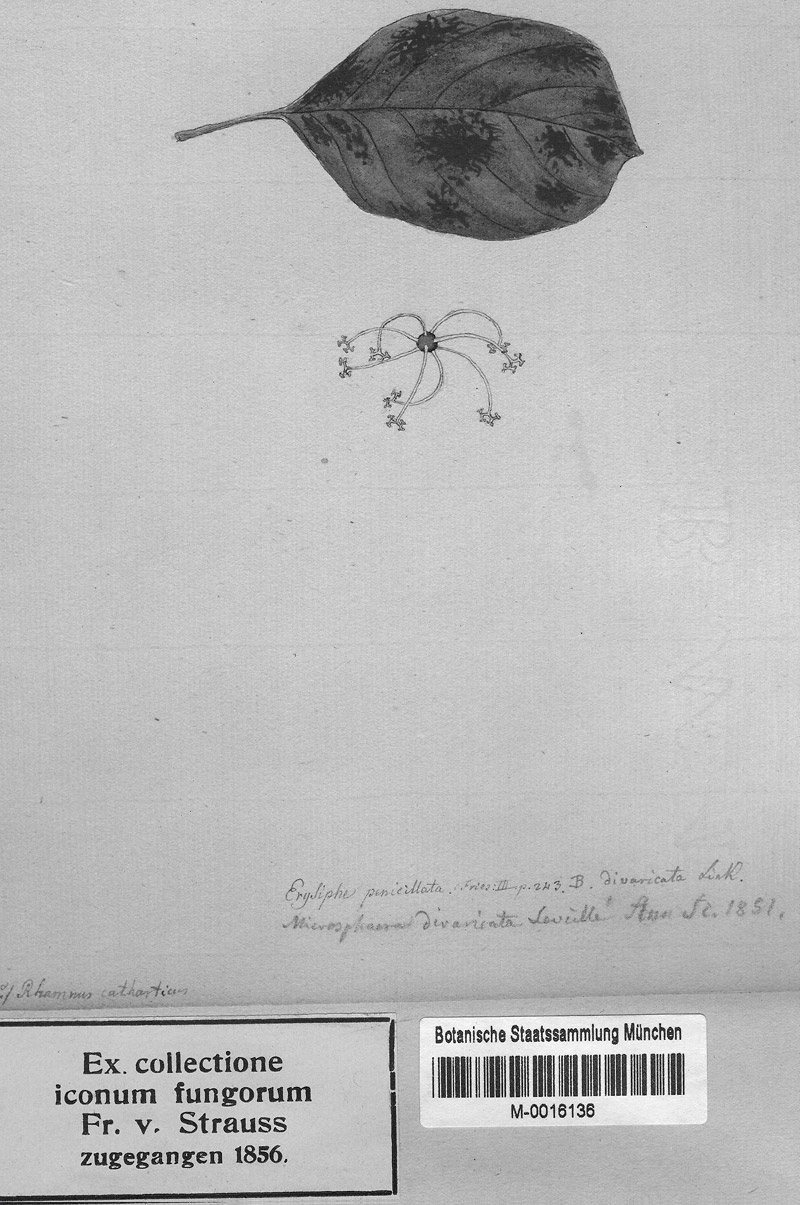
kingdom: Fungi
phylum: Ascomycota
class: Leotiomycetes
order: Helotiales
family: Erysiphaceae
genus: Erysiphe
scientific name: Erysiphe divaricata
